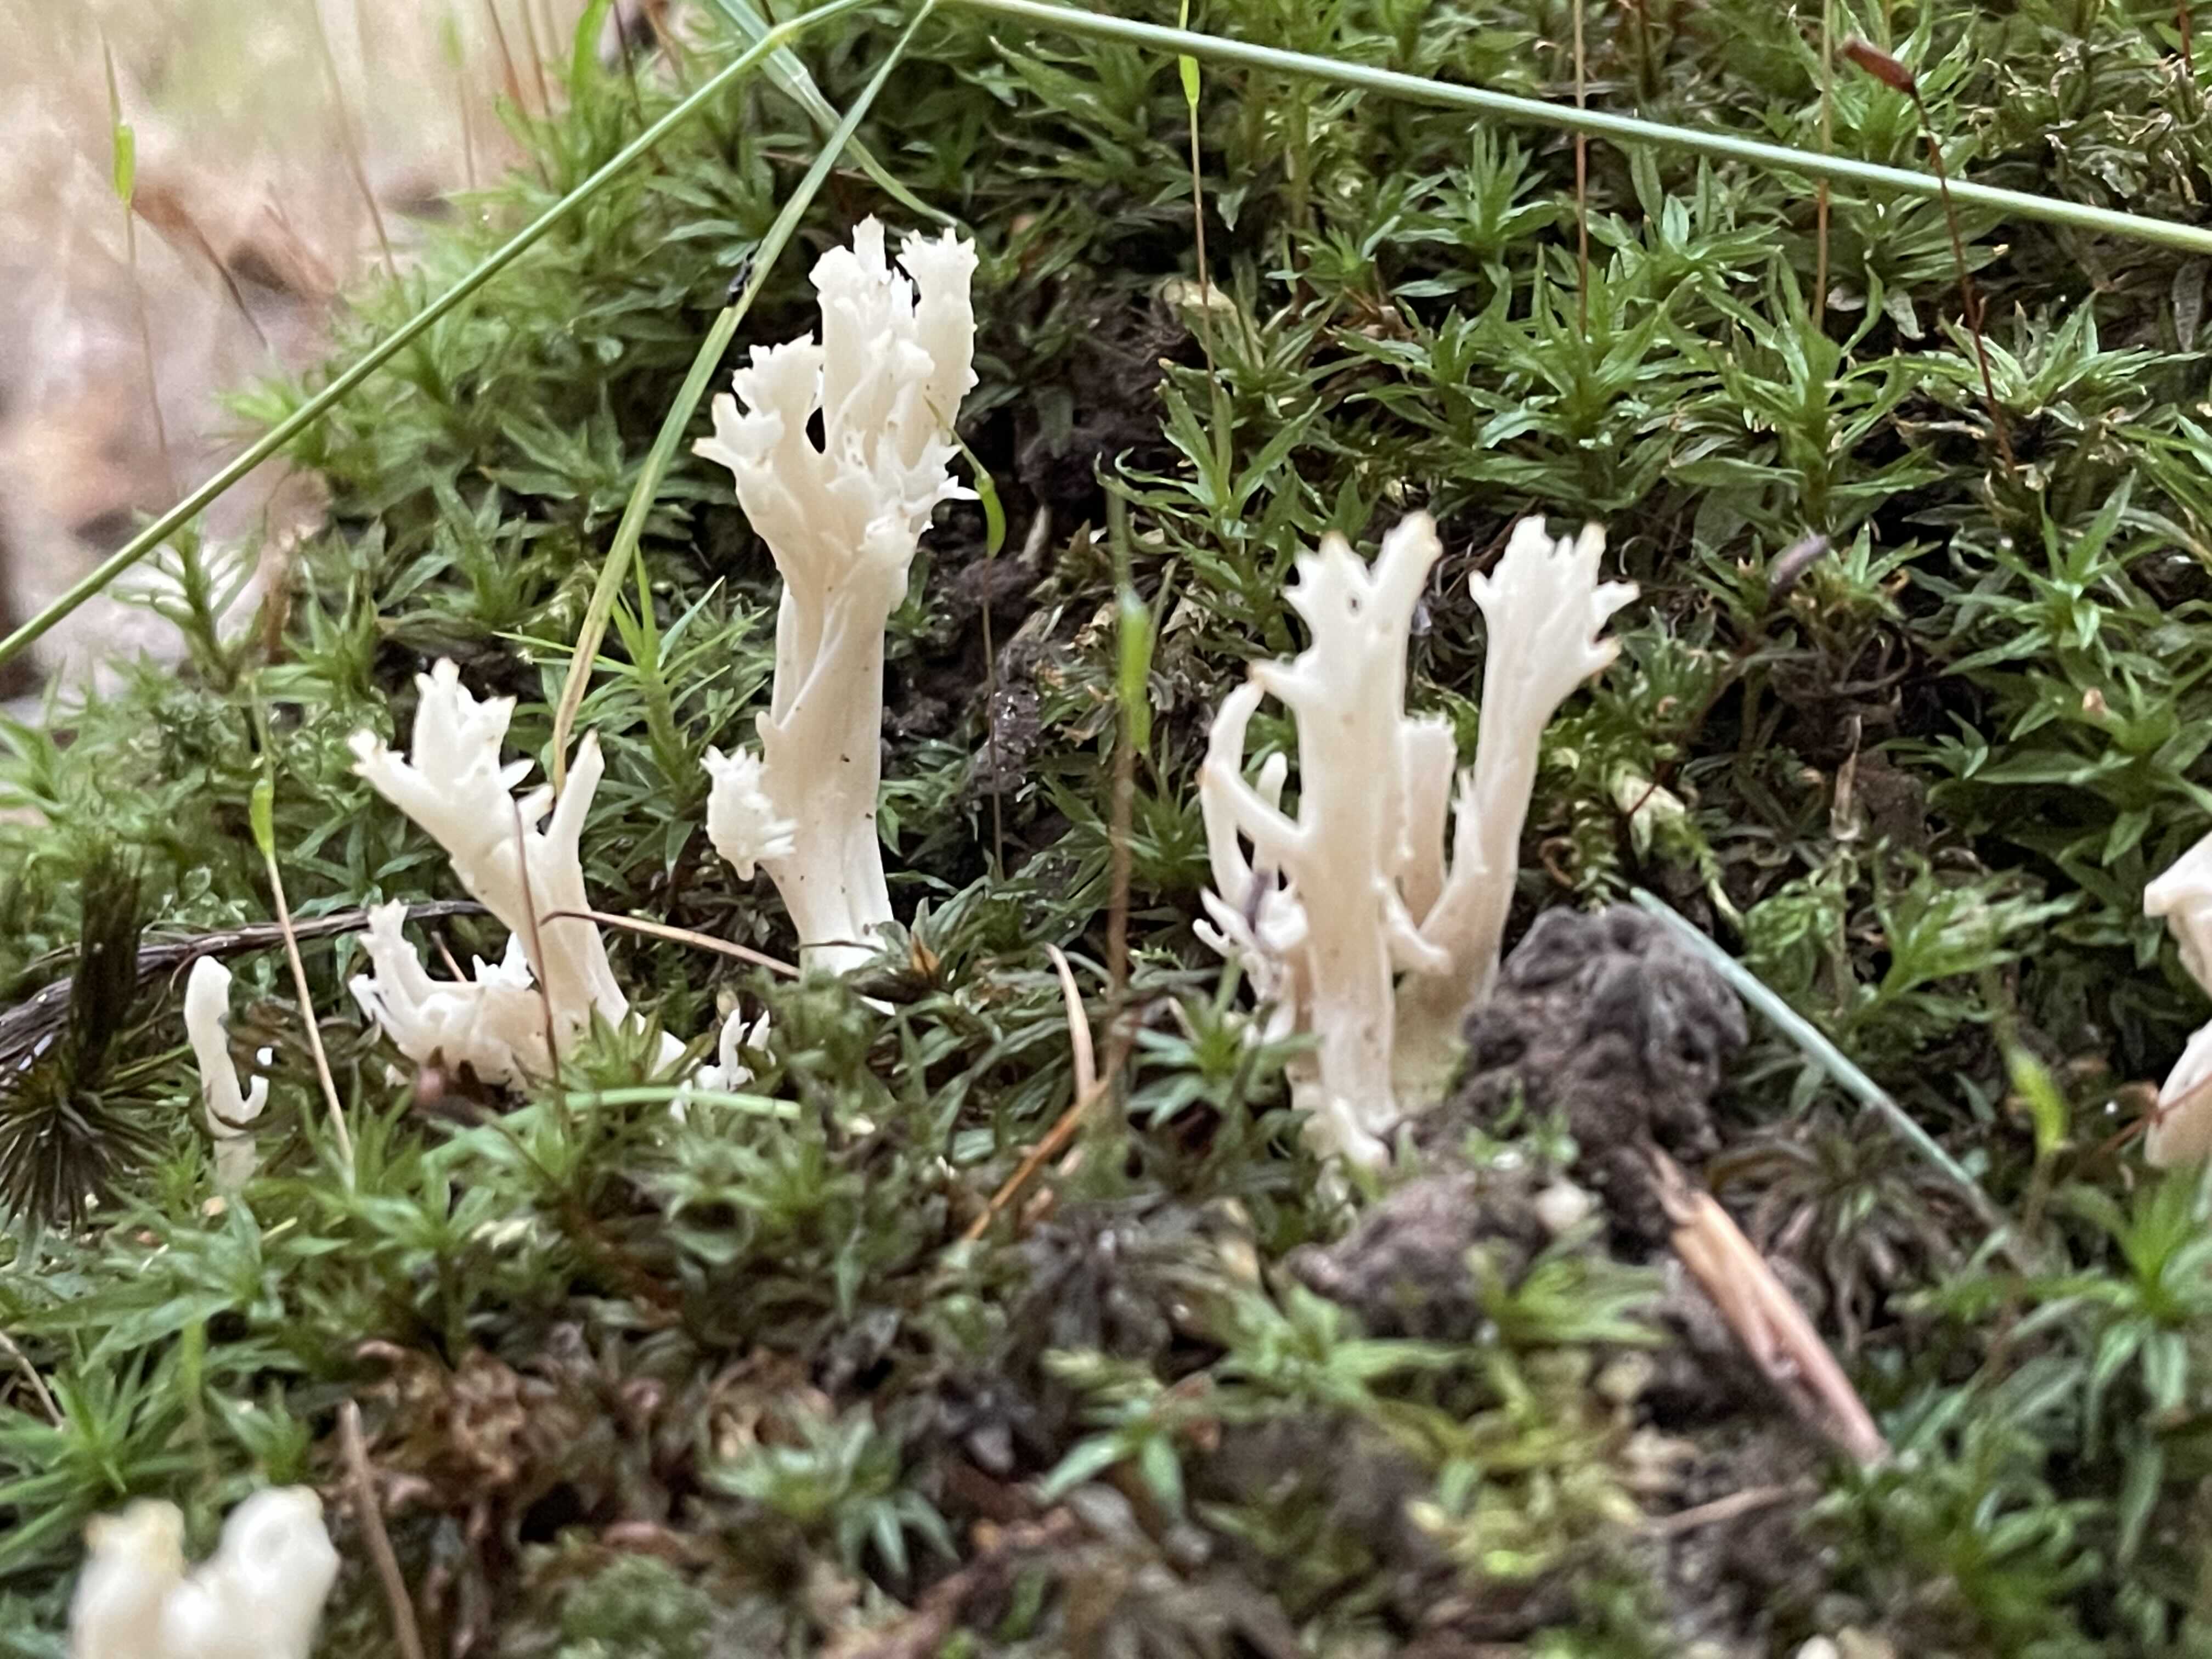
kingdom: Fungi
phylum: Basidiomycota
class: Agaricomycetes
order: Cantharellales
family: Hydnaceae
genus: Clavulina
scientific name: Clavulina
